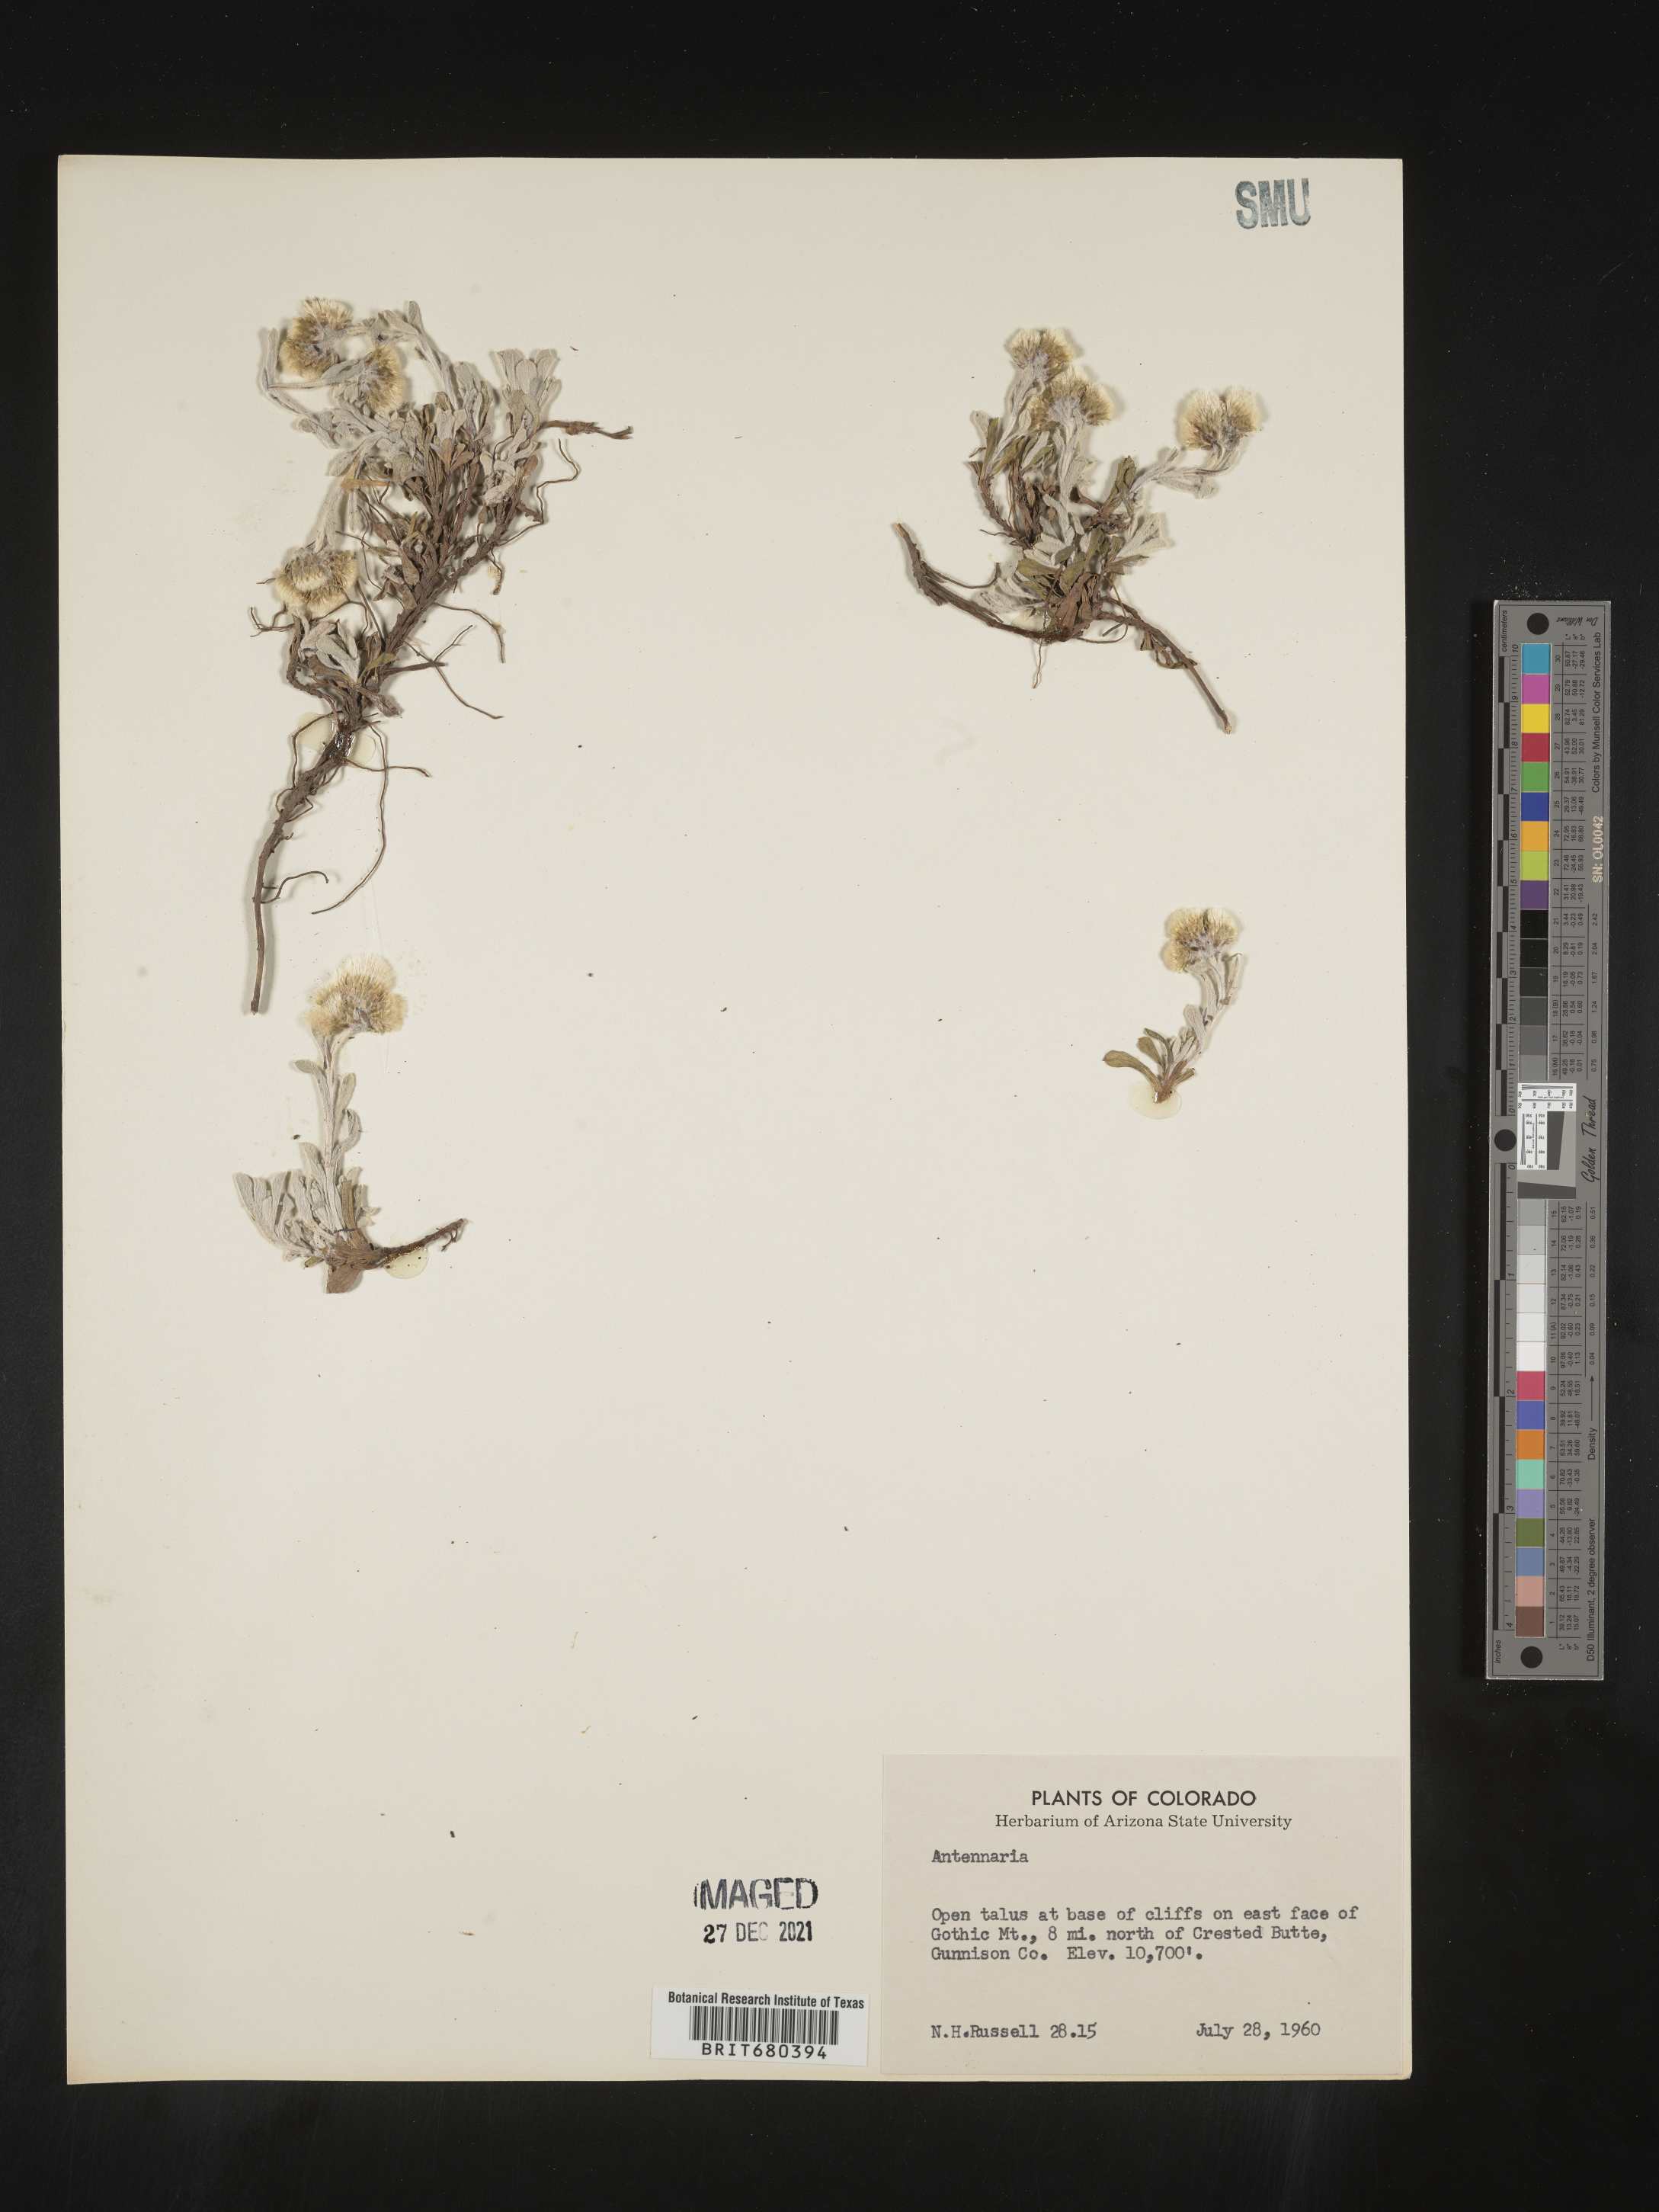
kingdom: Plantae
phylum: Tracheophyta
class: Magnoliopsida
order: Asterales
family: Asteraceae
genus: Antennaria
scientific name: Antennaria umbrinella
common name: Brown pussytoes
